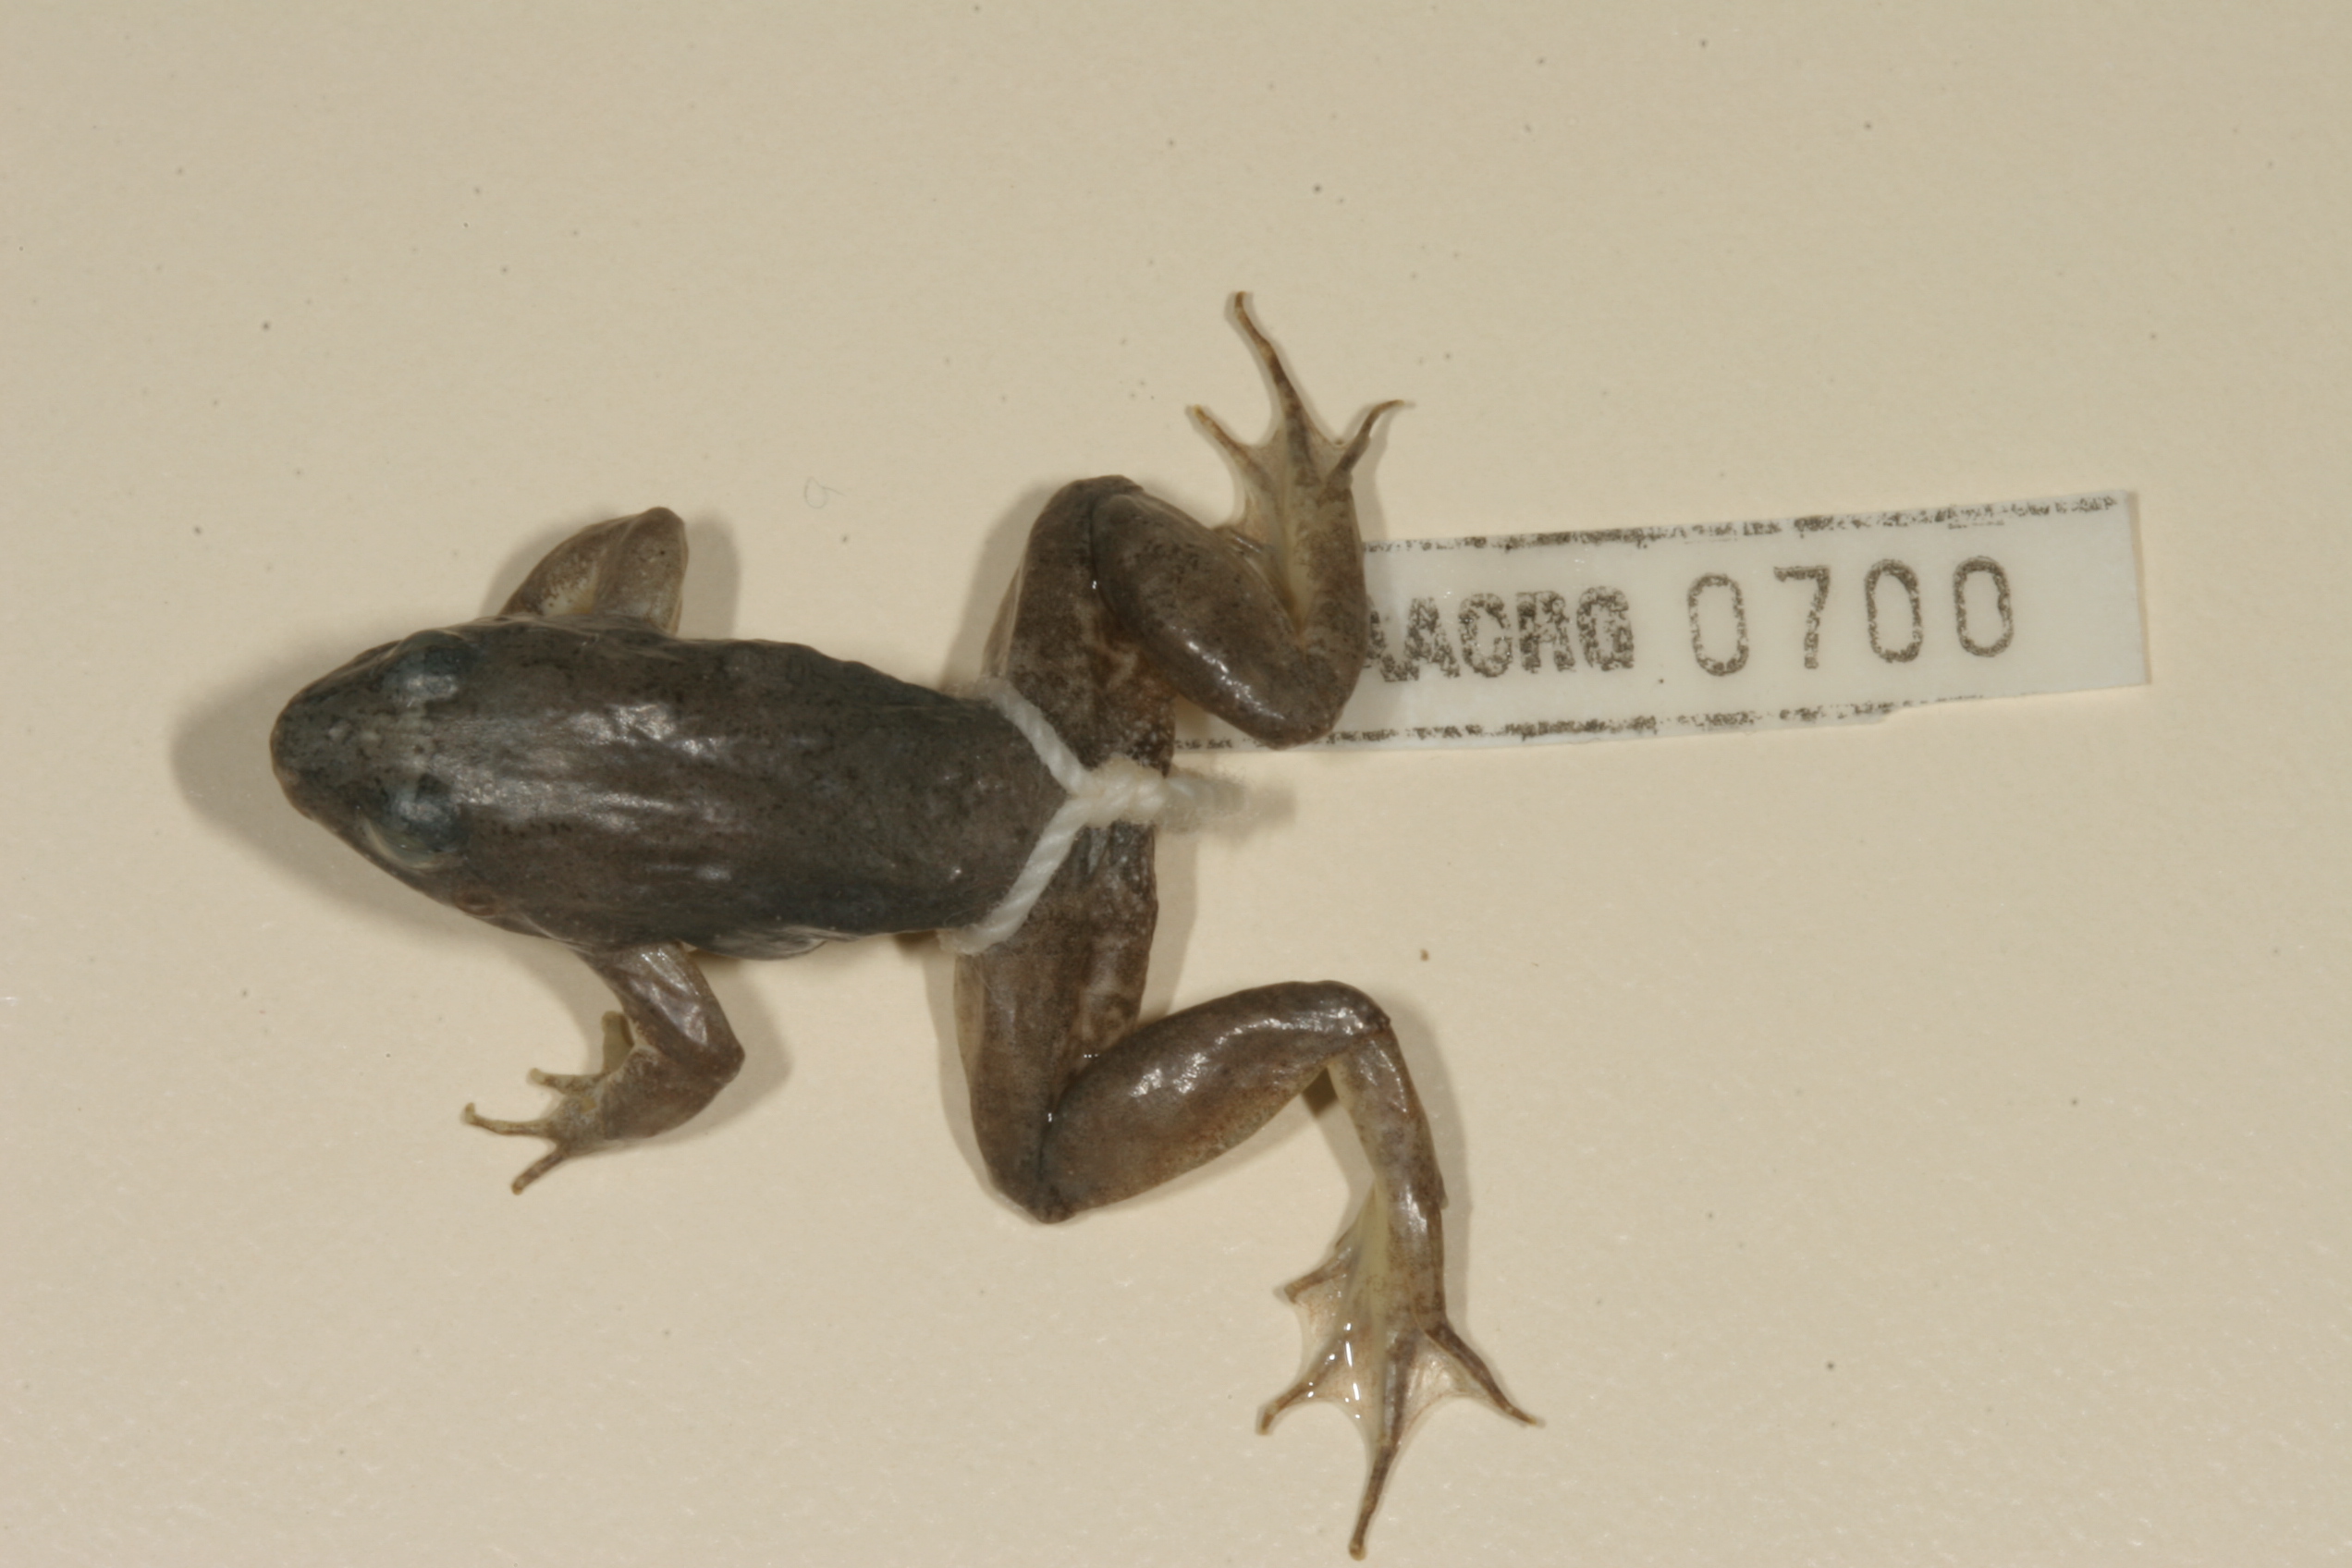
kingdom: Animalia
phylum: Chordata
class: Amphibia
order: Anura
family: Phrynobatrachidae
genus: Phrynobatrachus
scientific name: Phrynobatrachus natalensis
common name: Snoring puddle frog
